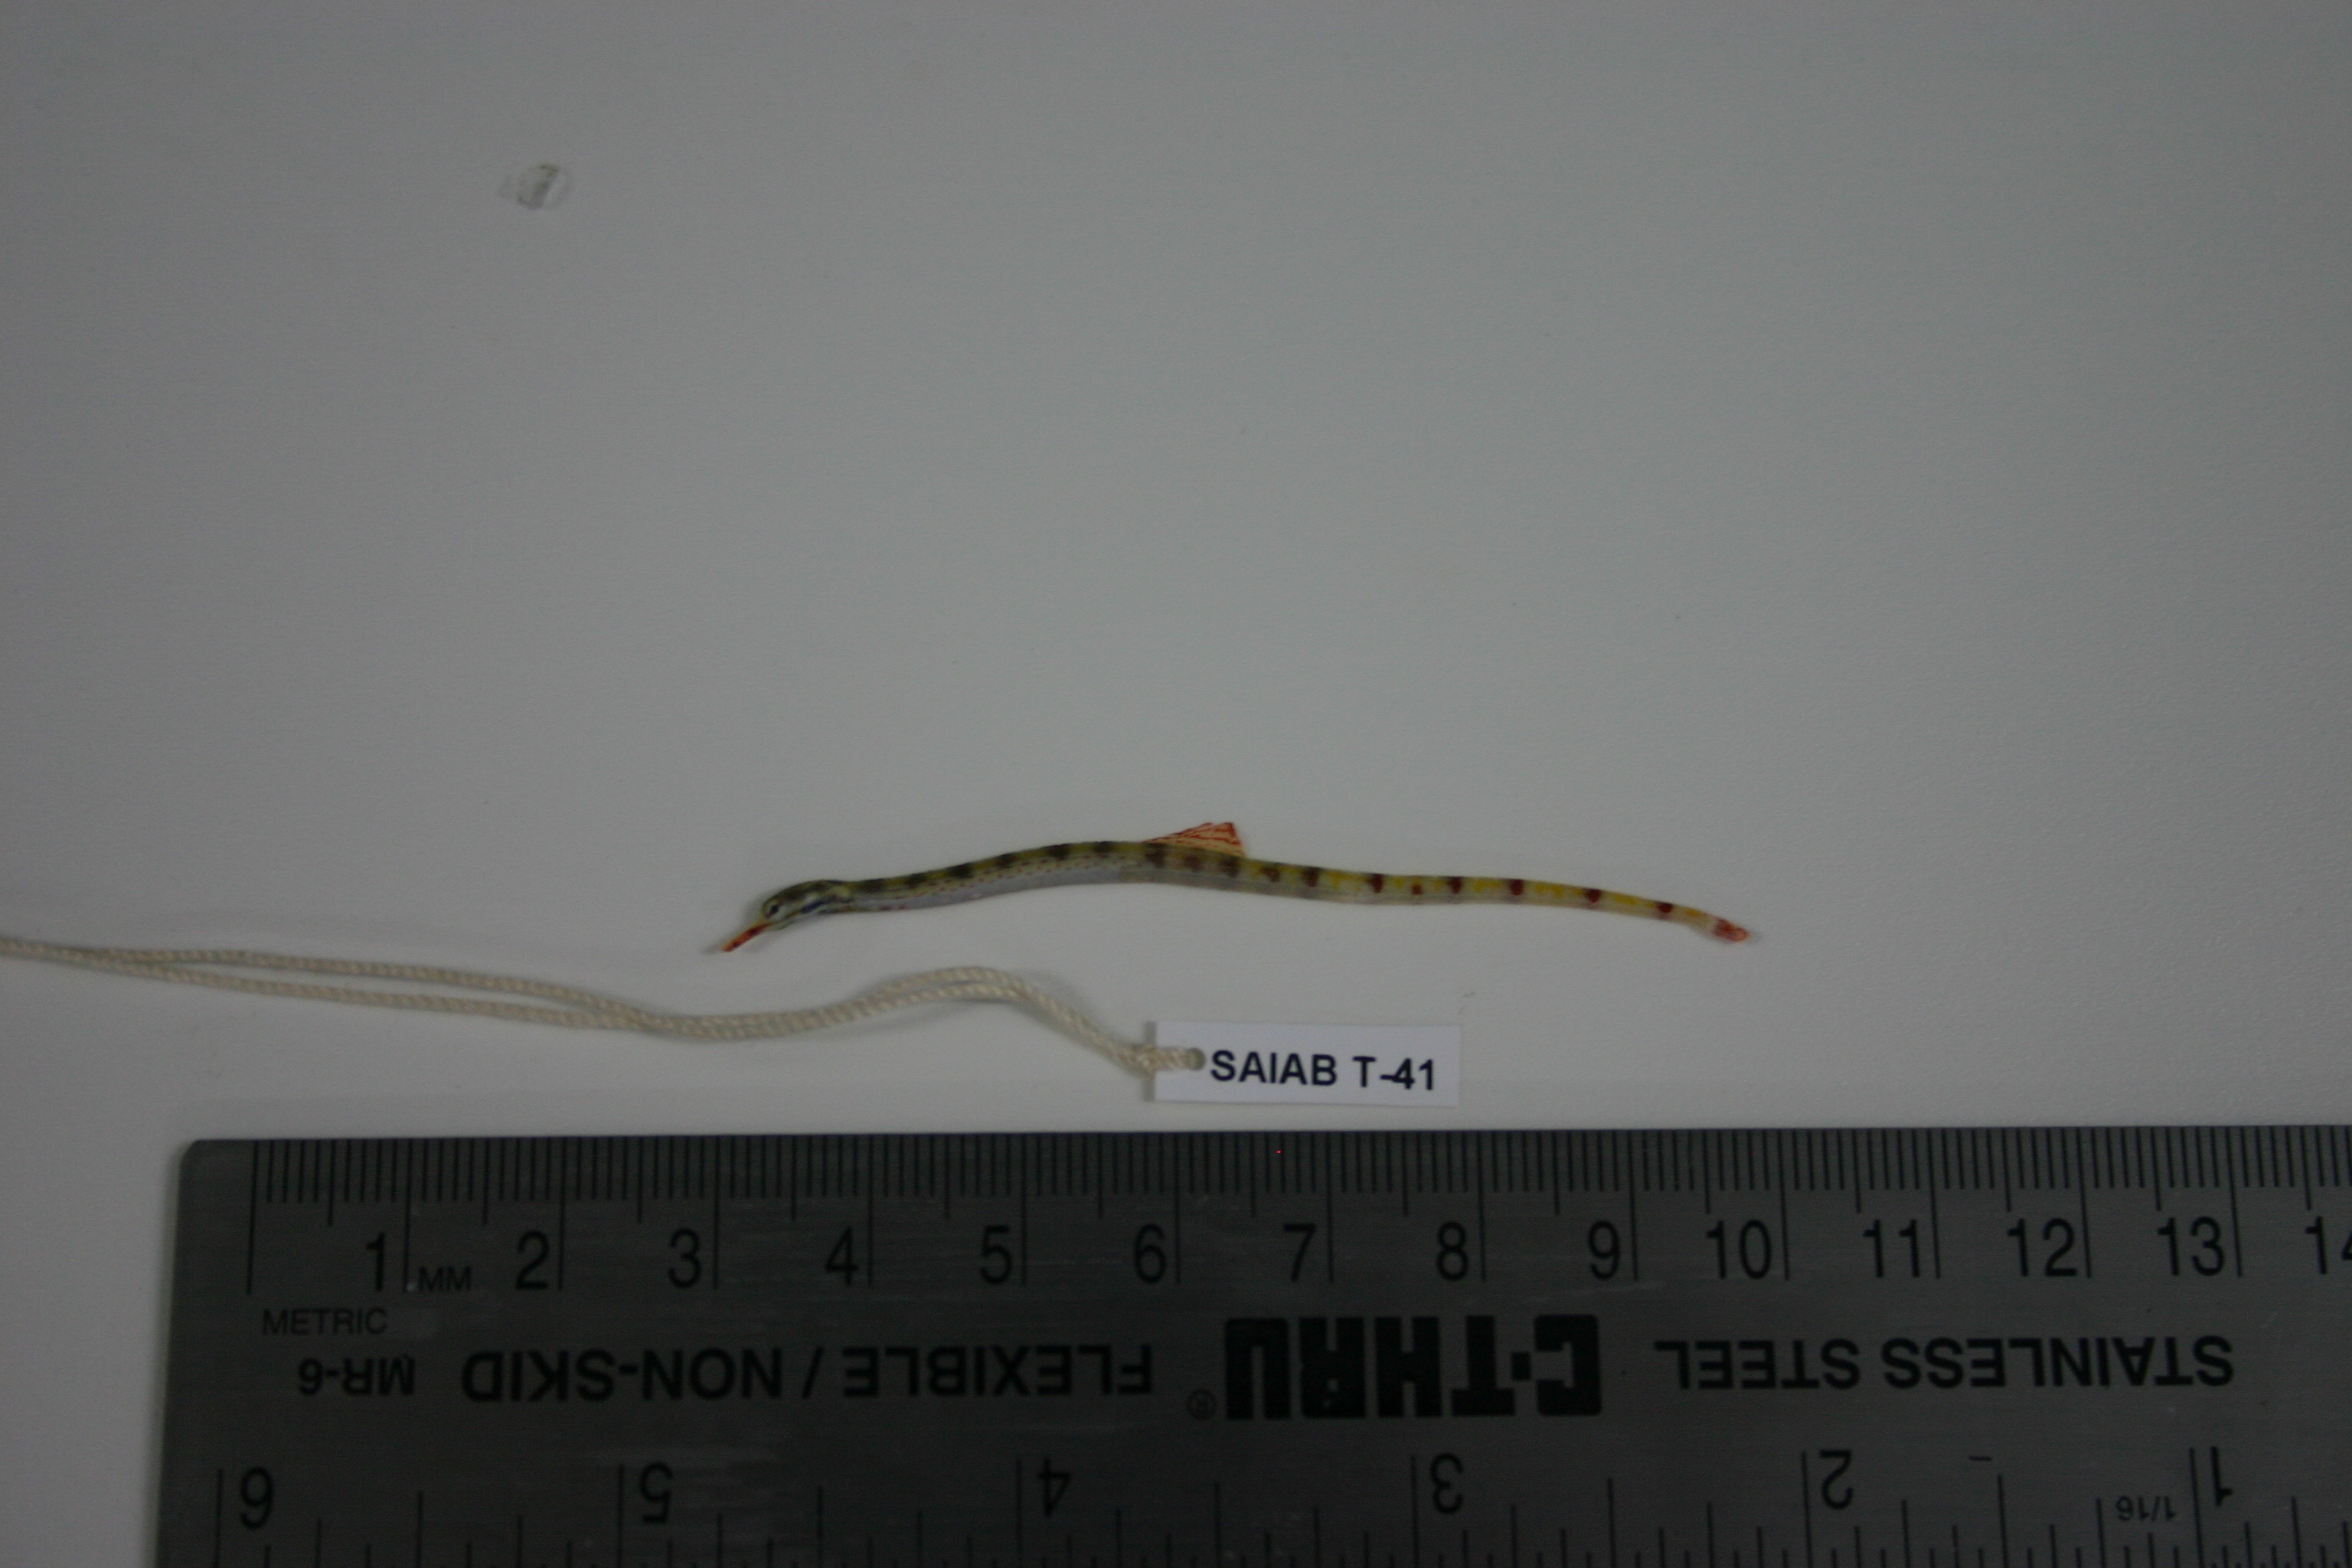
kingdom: Animalia
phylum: Chordata
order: Syngnathiformes
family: Syngnathidae
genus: Corythoichthys
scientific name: Corythoichthys
